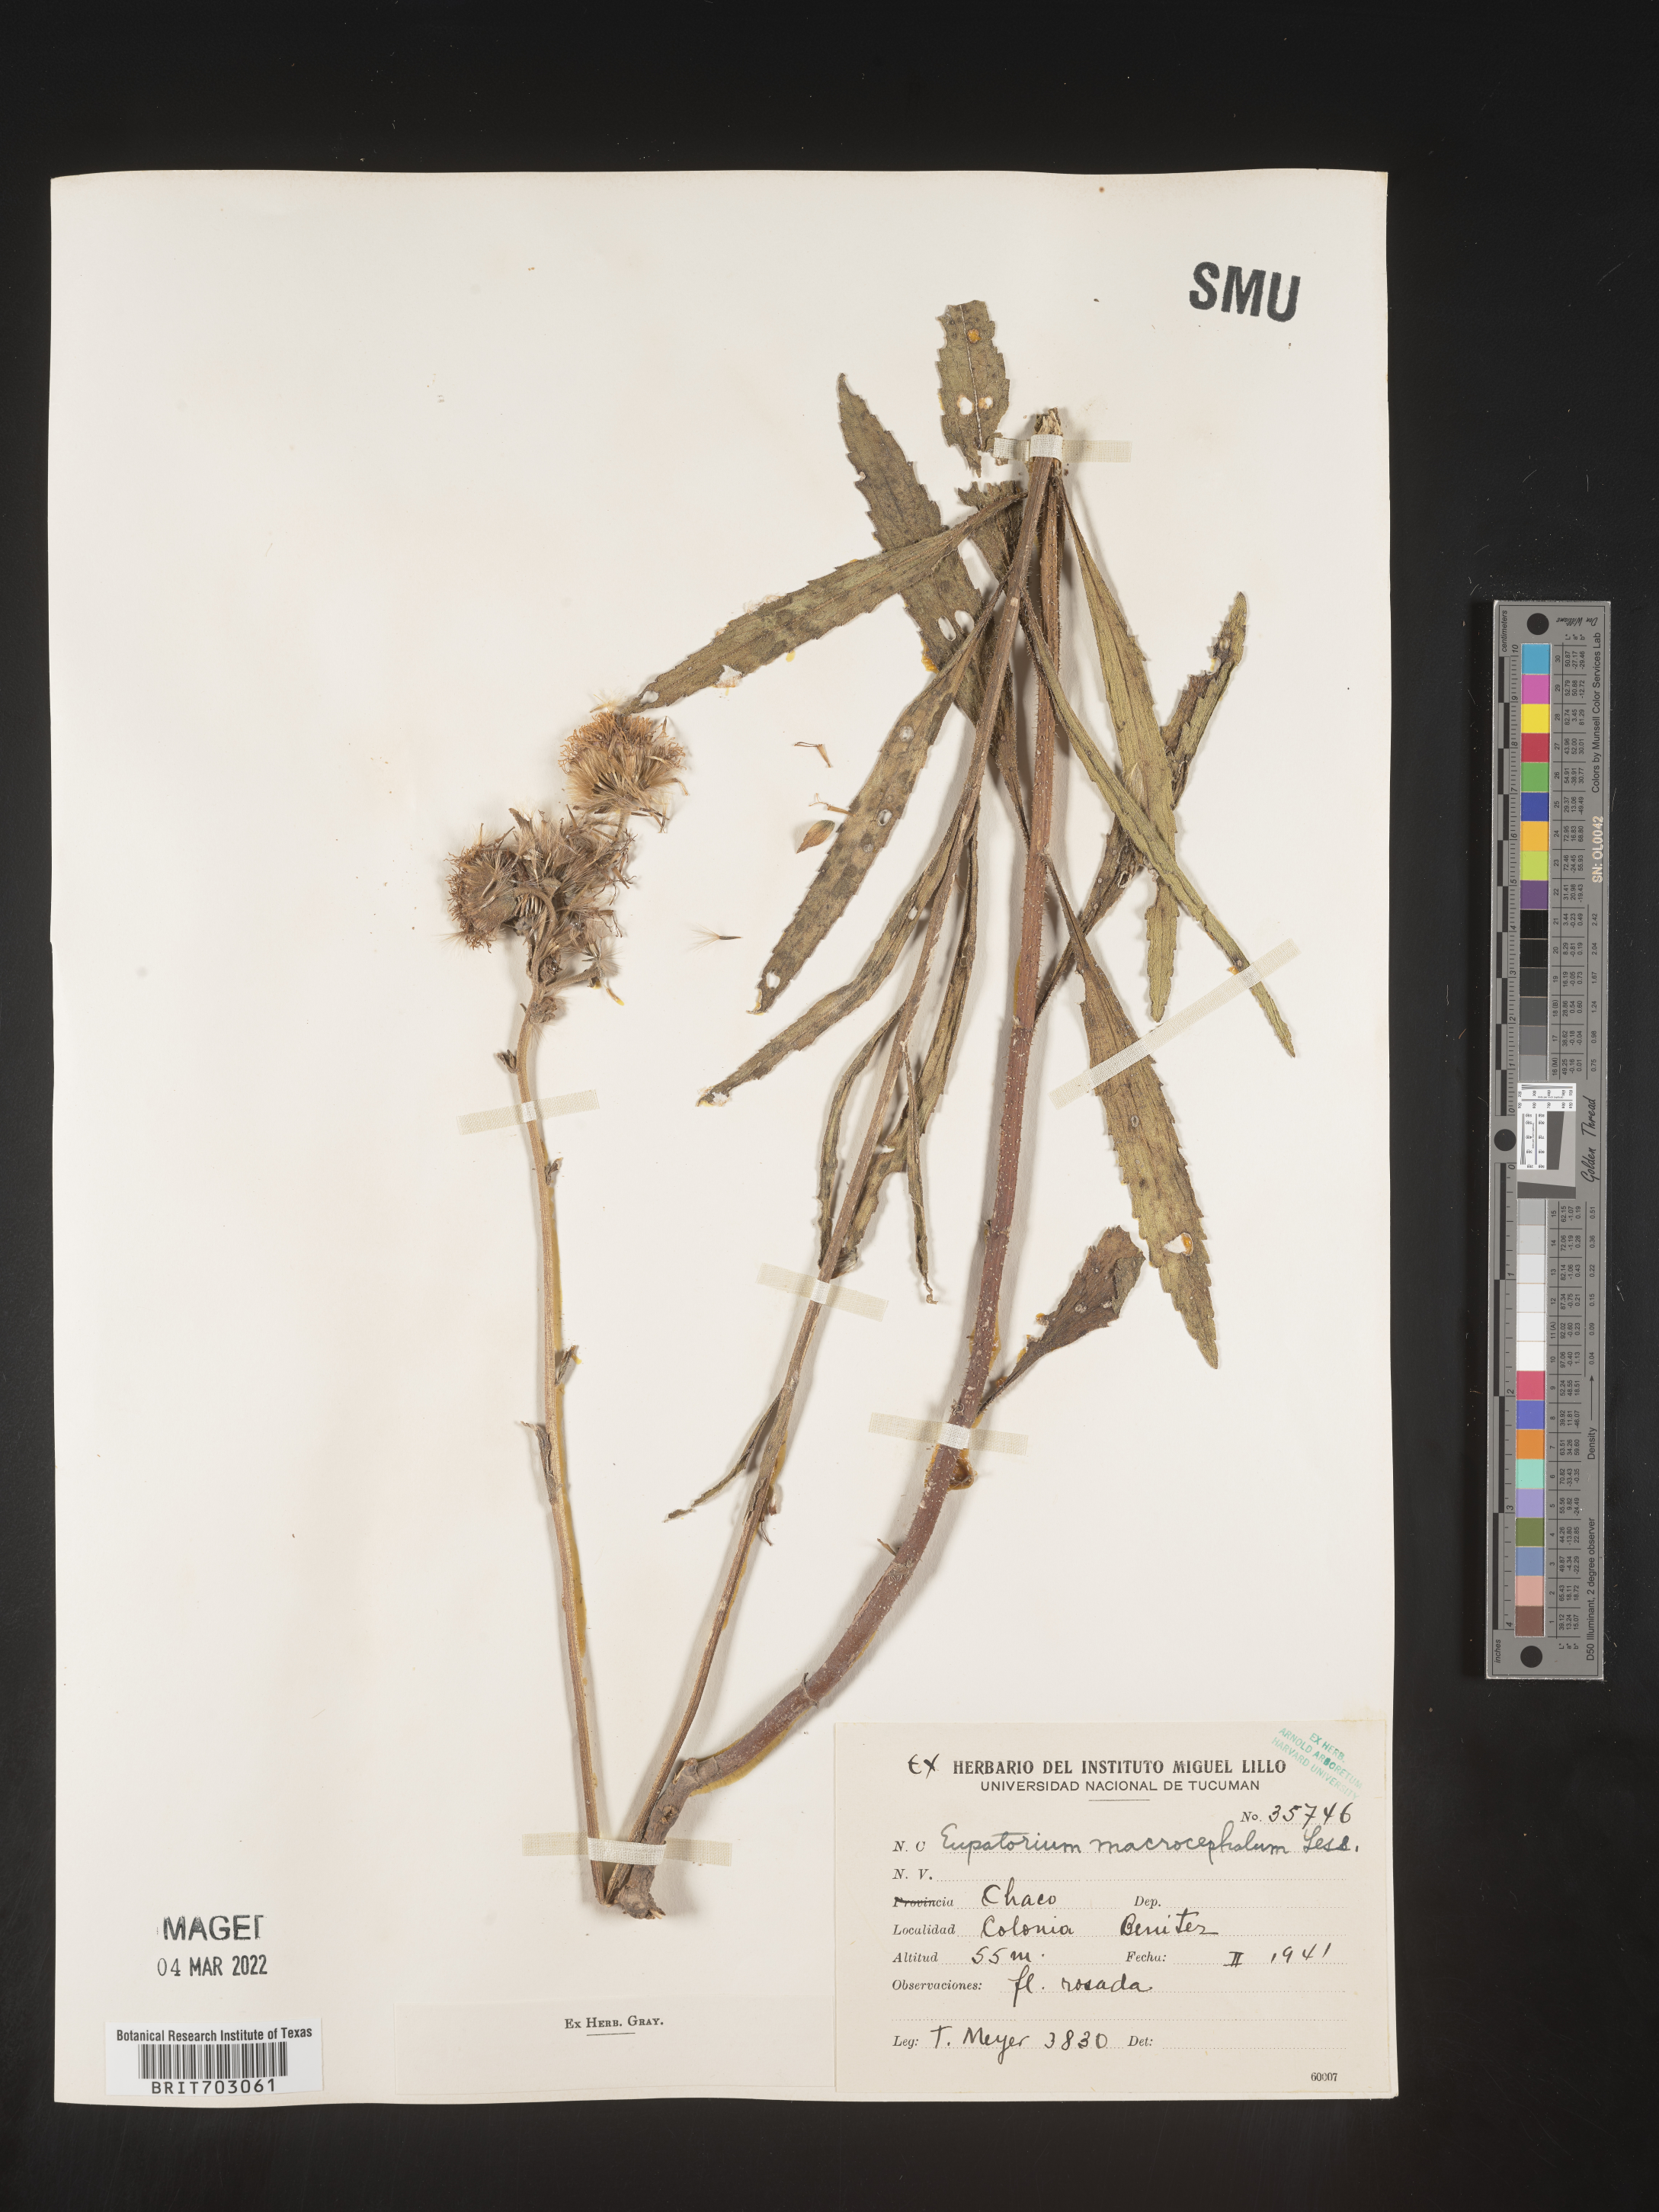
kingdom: Plantae
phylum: Tracheophyta
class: Magnoliopsida
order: Asterales
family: Asteraceae
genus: Eupatorium
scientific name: Eupatorium
